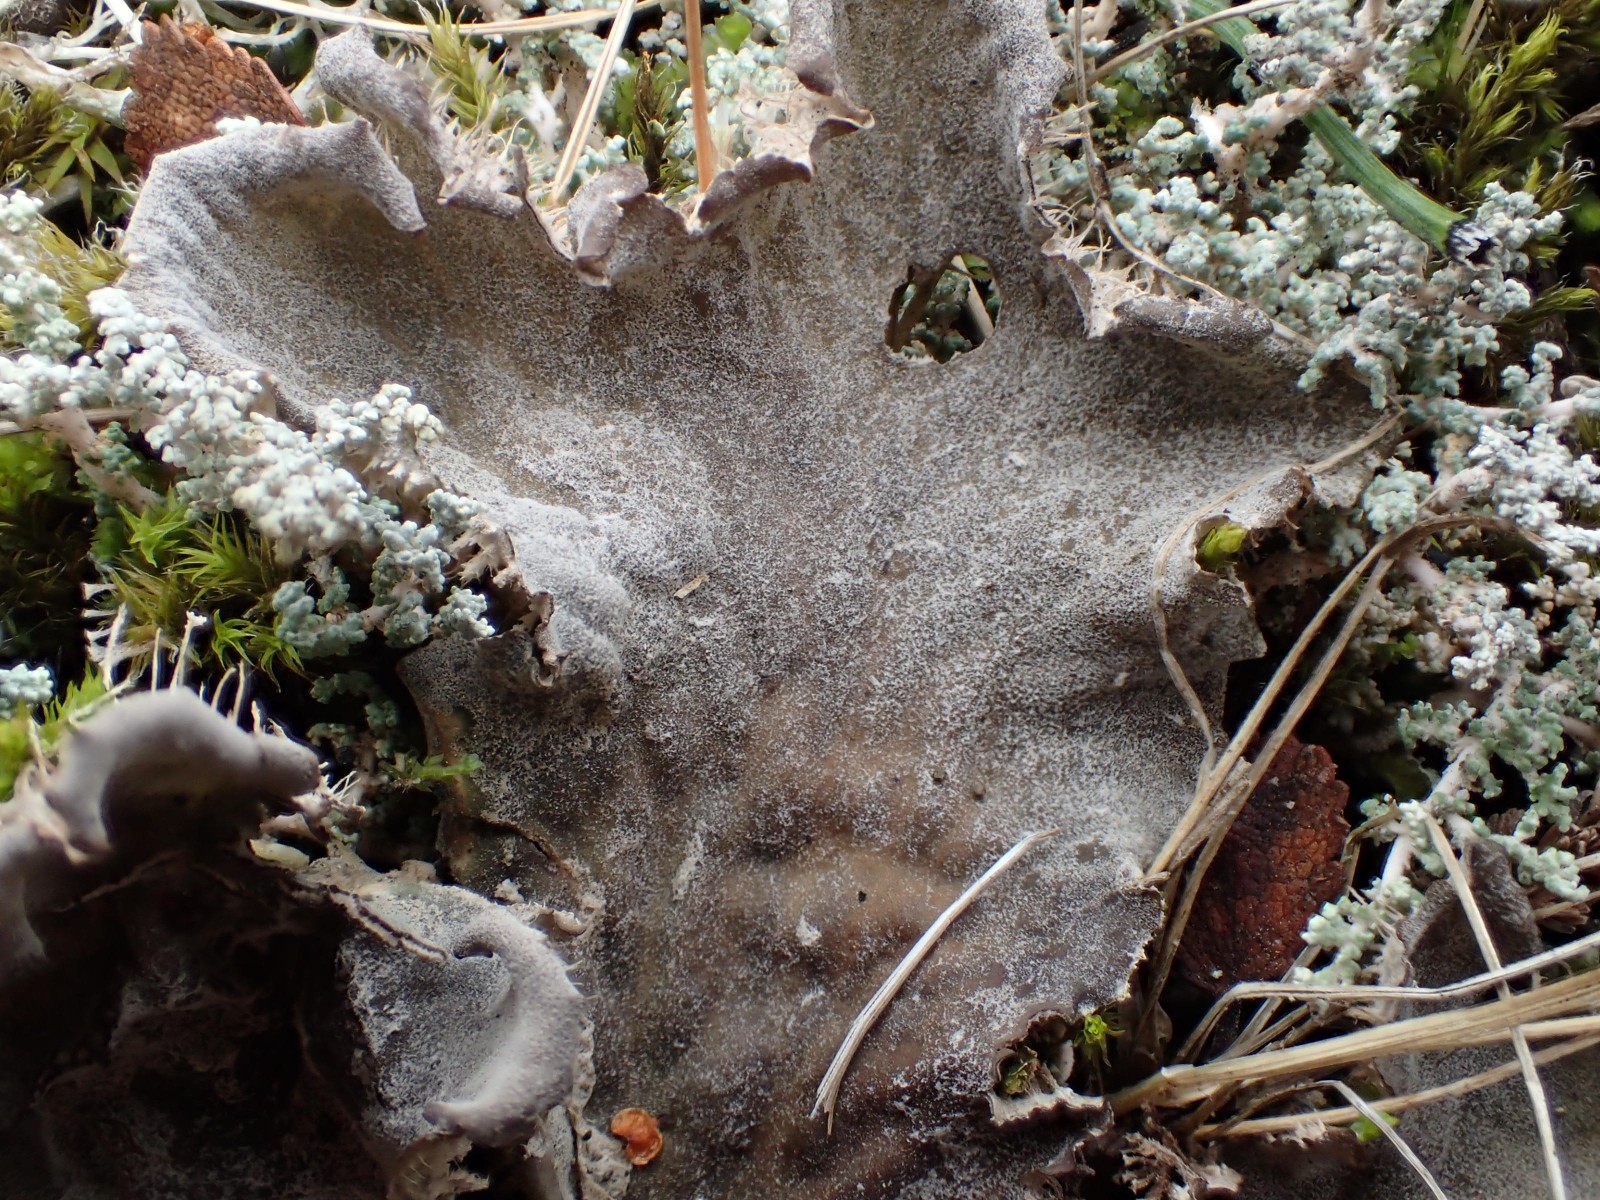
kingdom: Fungi
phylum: Ascomycota
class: Lecanoromycetes
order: Peltigerales
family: Peltigeraceae
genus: Peltigera
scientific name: Peltigera membranacea
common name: tynd skjoldlav
